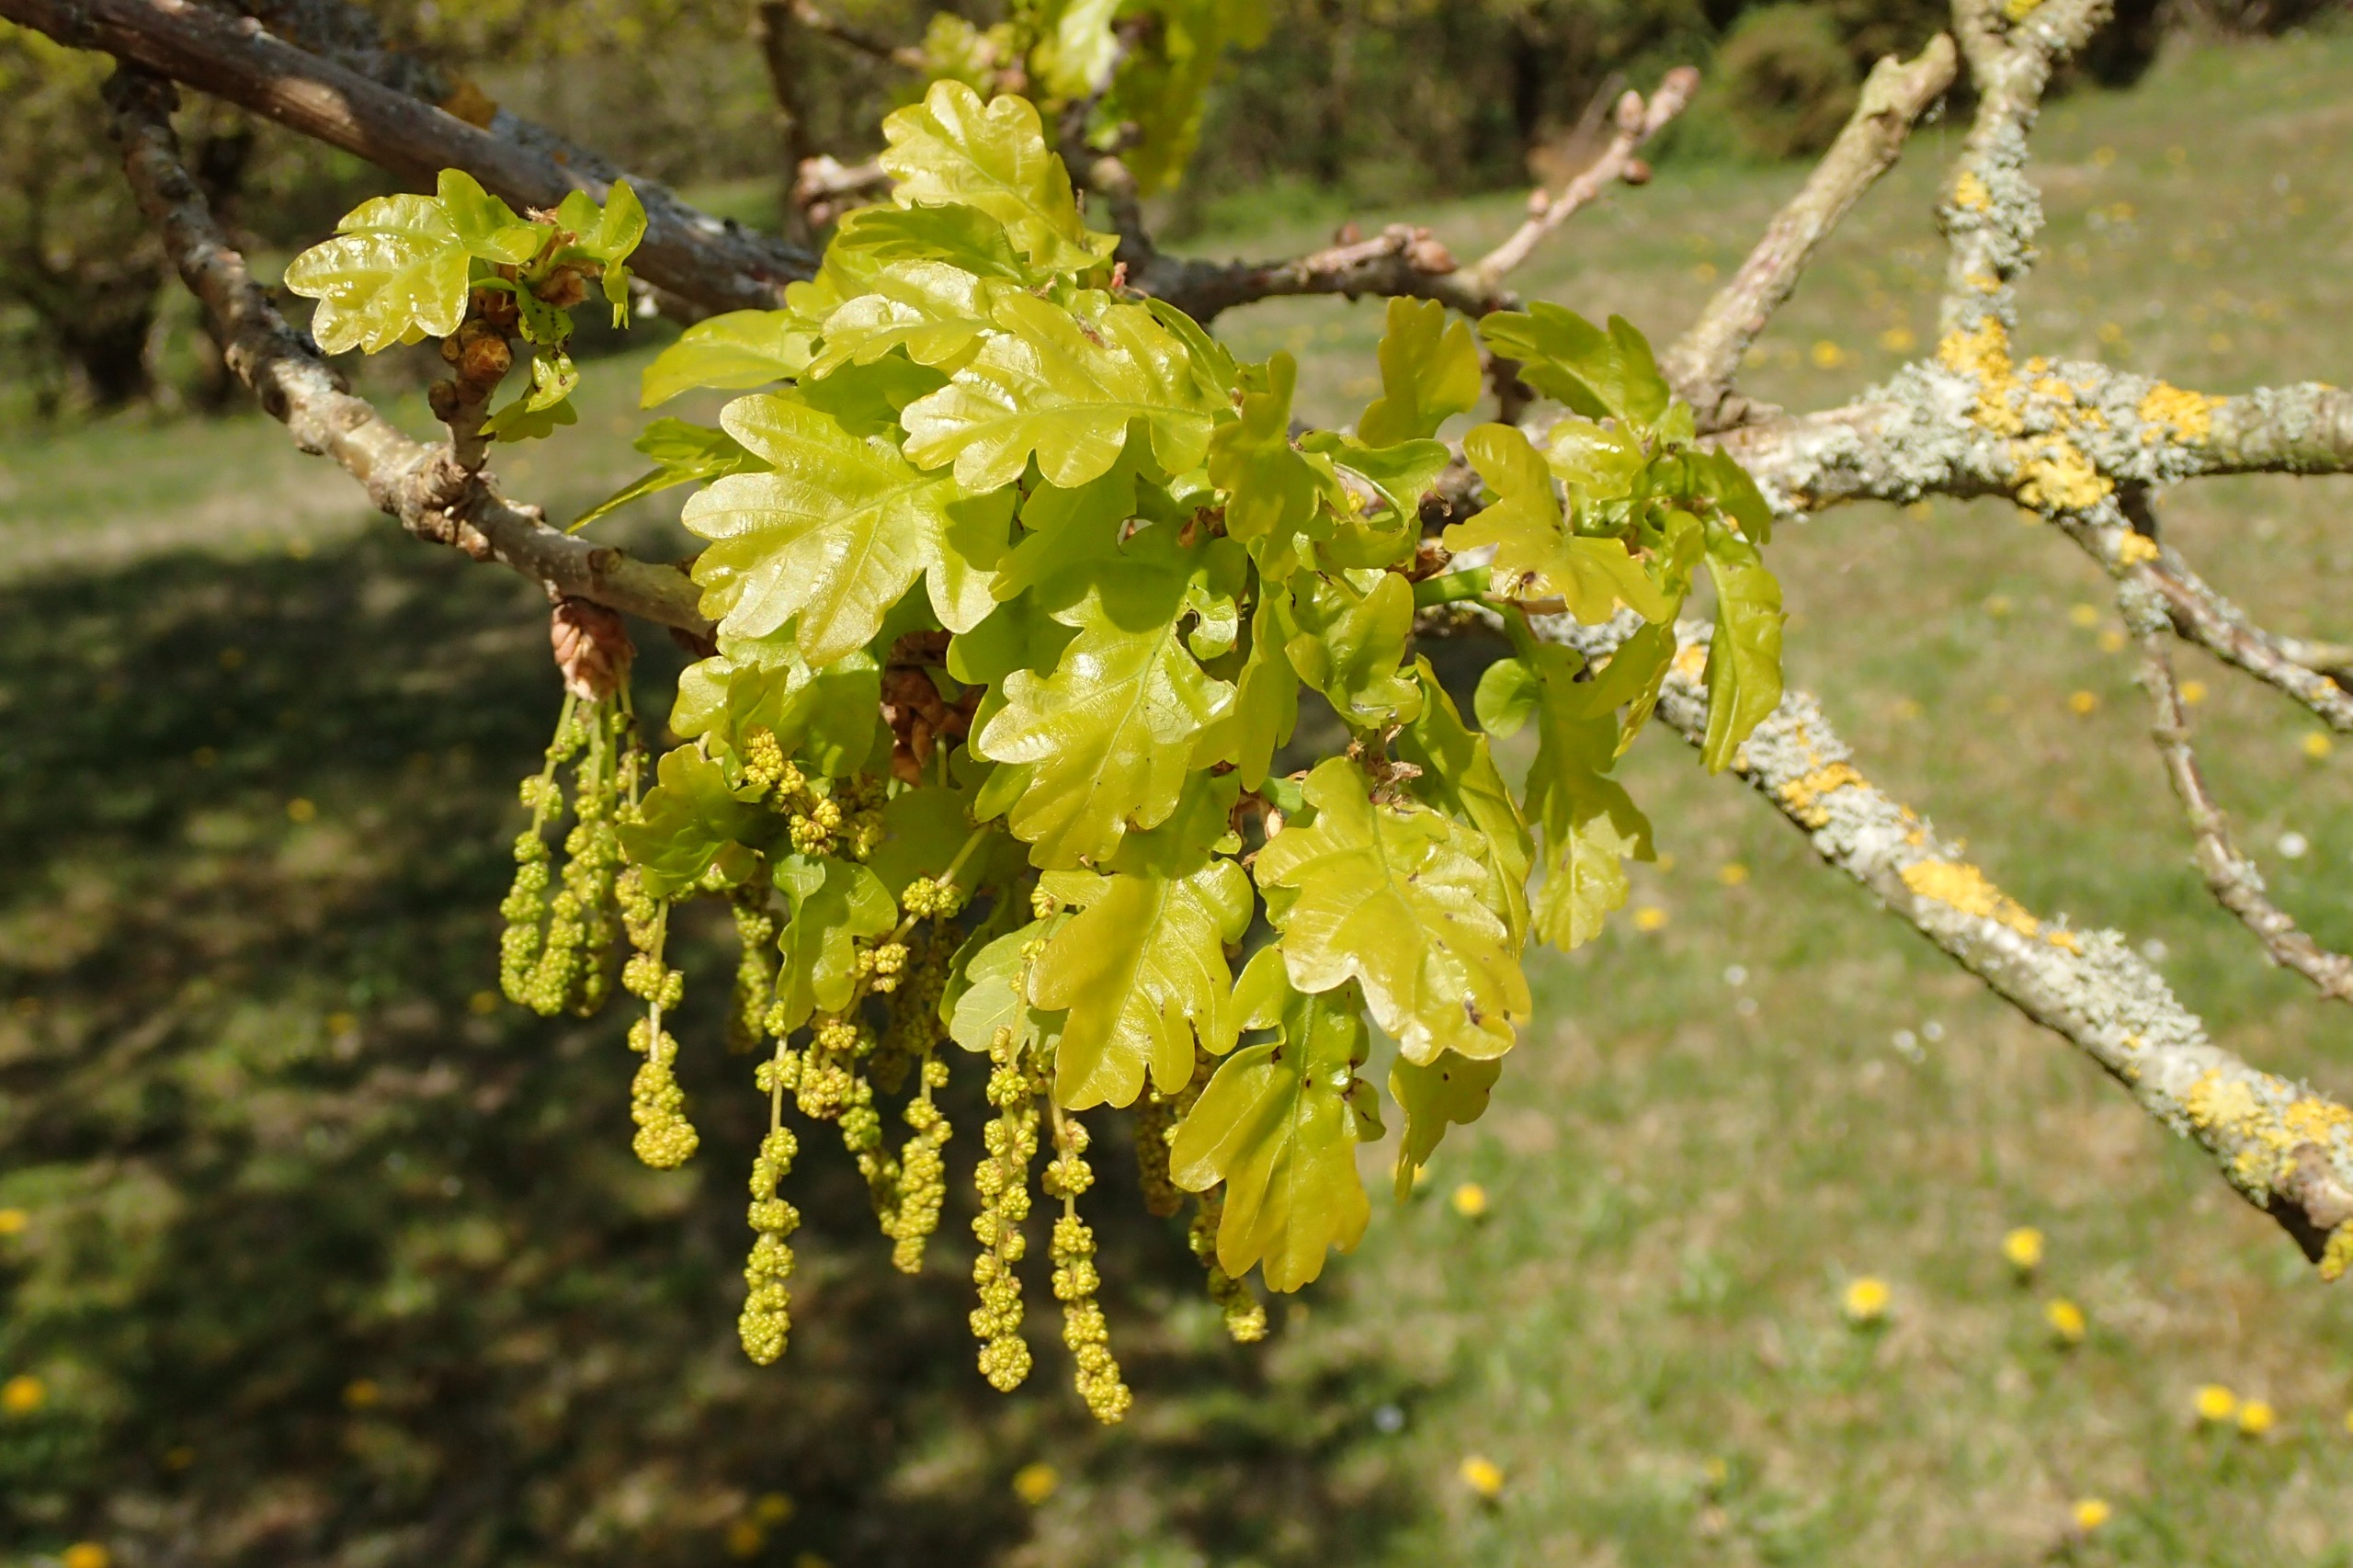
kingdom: Plantae
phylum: Tracheophyta
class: Magnoliopsida
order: Fagales
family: Fagaceae
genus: Quercus
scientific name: Quercus robur
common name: Stilk-eg/almindelig eg
